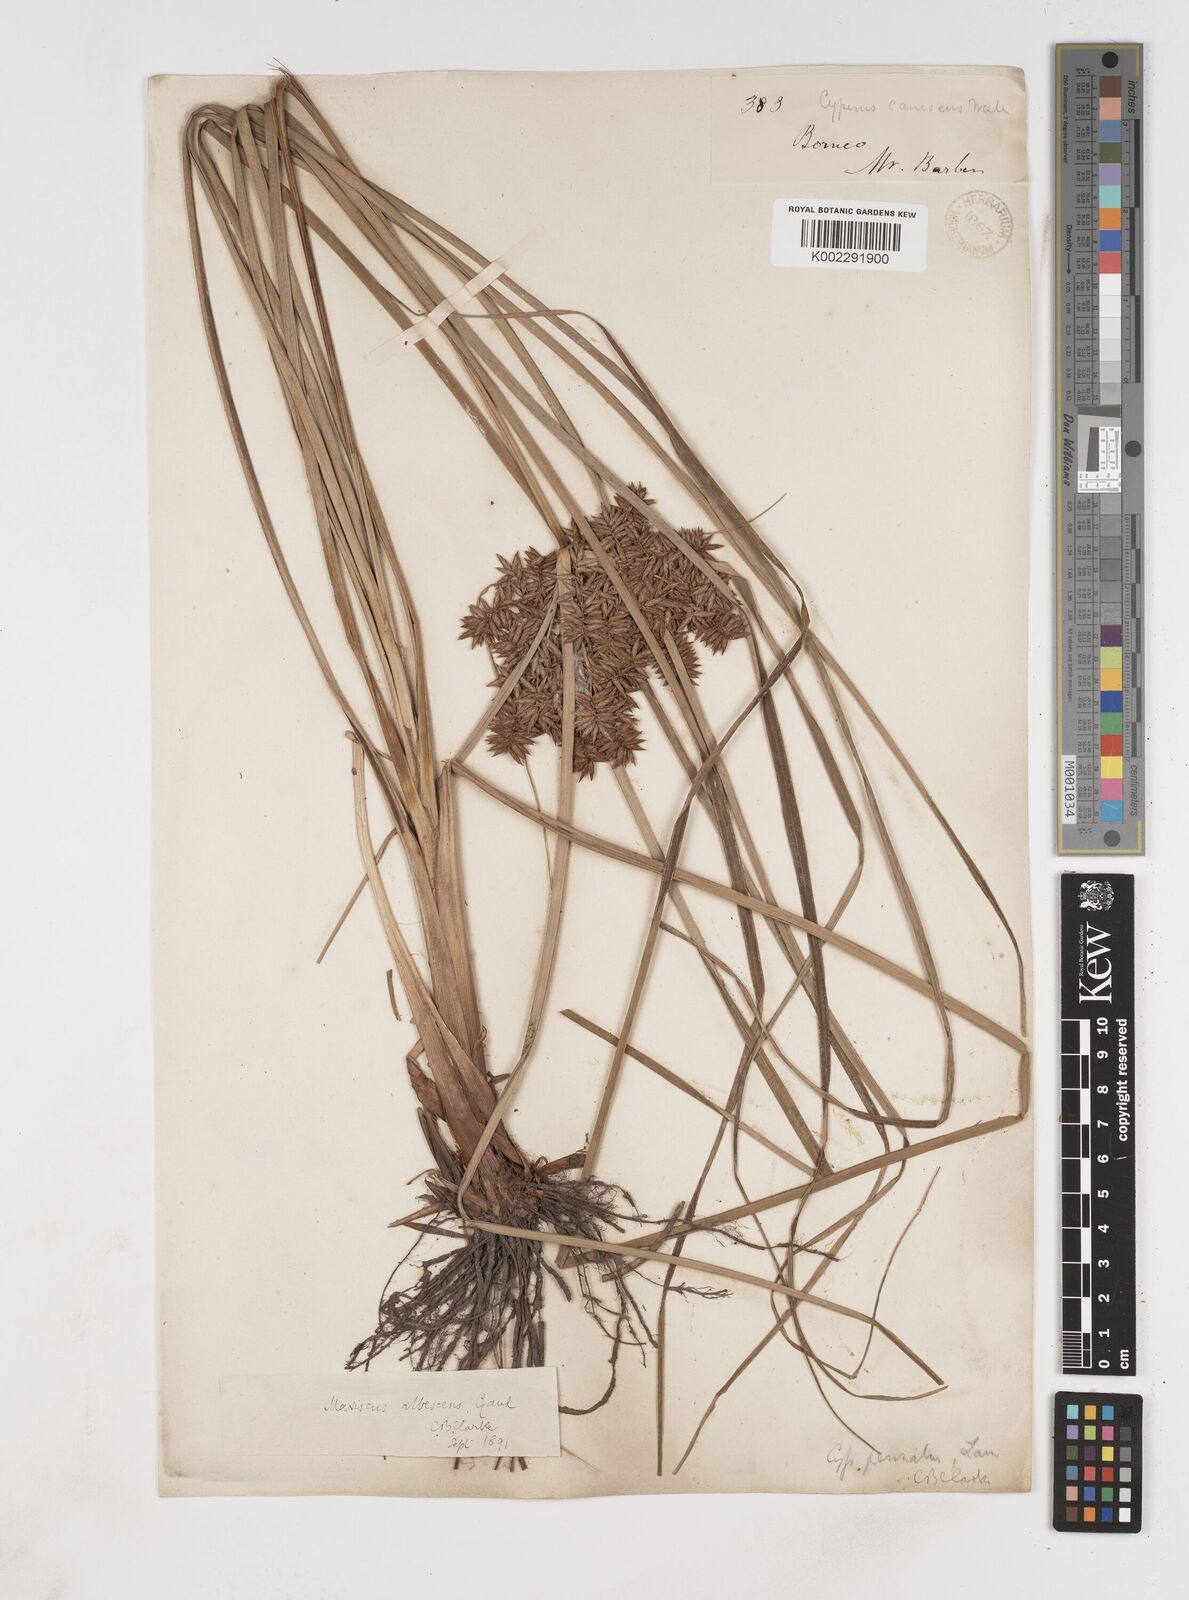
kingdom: Plantae
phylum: Tracheophyta
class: Liliopsida
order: Poales
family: Cyperaceae
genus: Cyperus
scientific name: Cyperus javanicus
